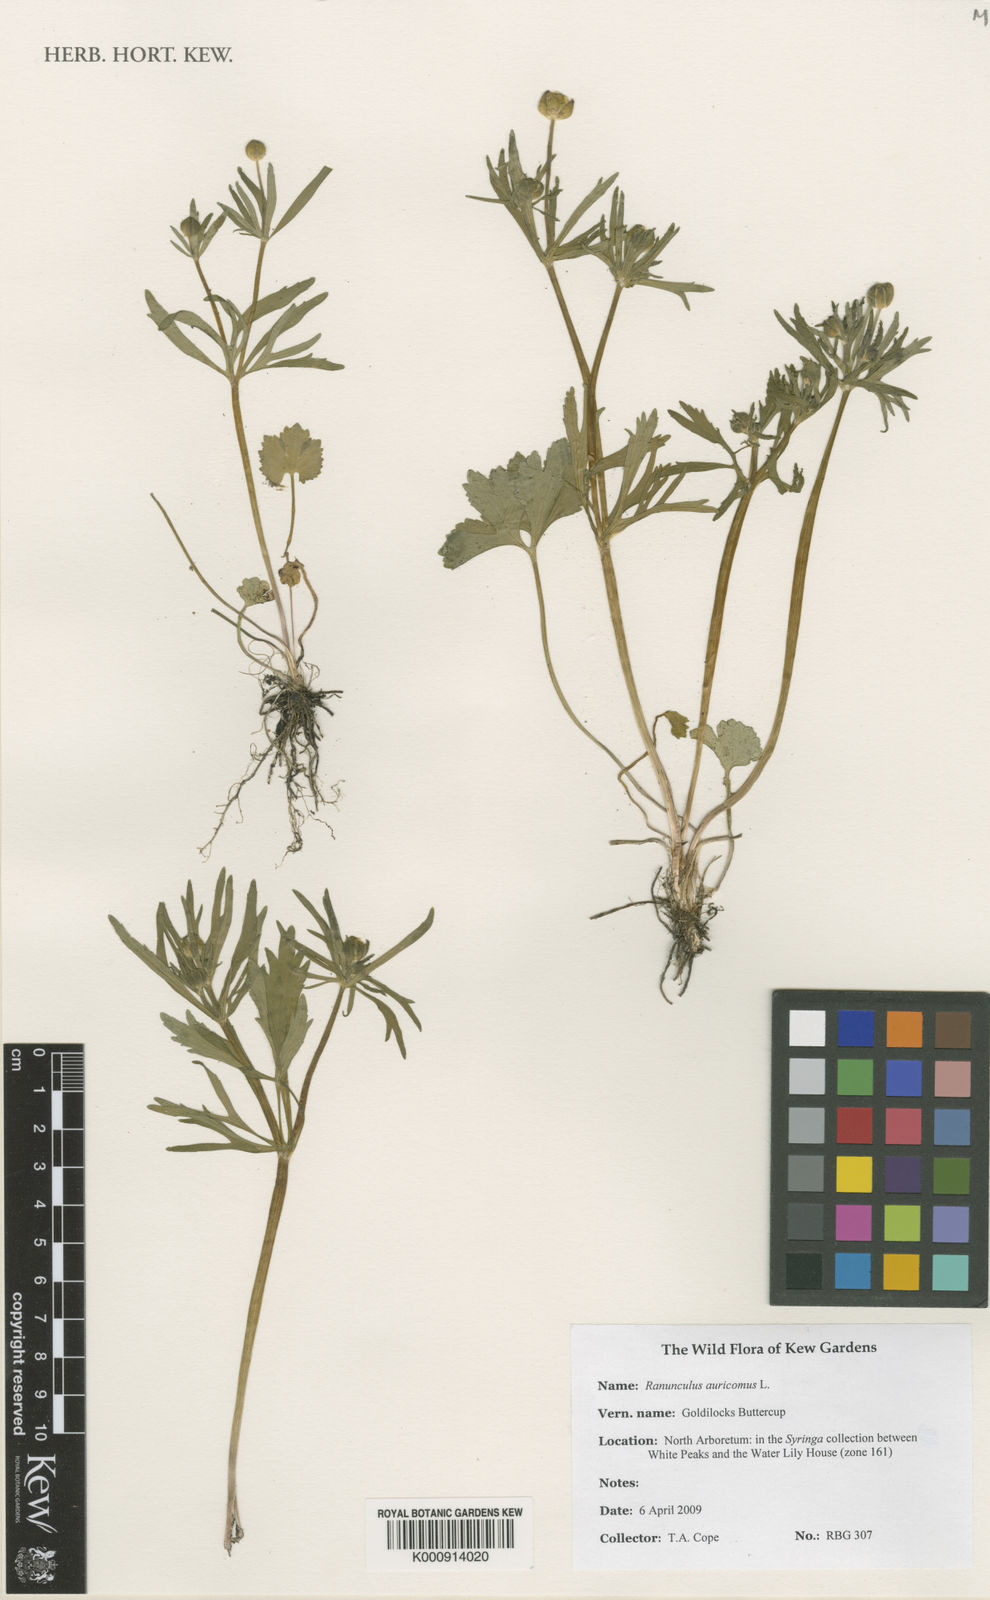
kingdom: Plantae
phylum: Tracheophyta
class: Magnoliopsida
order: Ranunculales
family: Ranunculaceae
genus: Ranunculus
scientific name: Ranunculus auricomus
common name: Goldilocks buttercup
